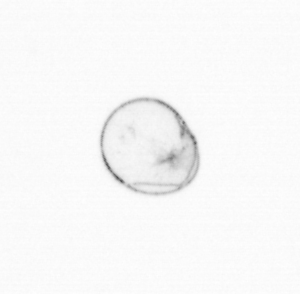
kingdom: Chromista
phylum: Myzozoa
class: Dinophyceae
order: Noctilucales
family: Noctilucaceae
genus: Noctiluca
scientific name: Noctiluca scintillans
